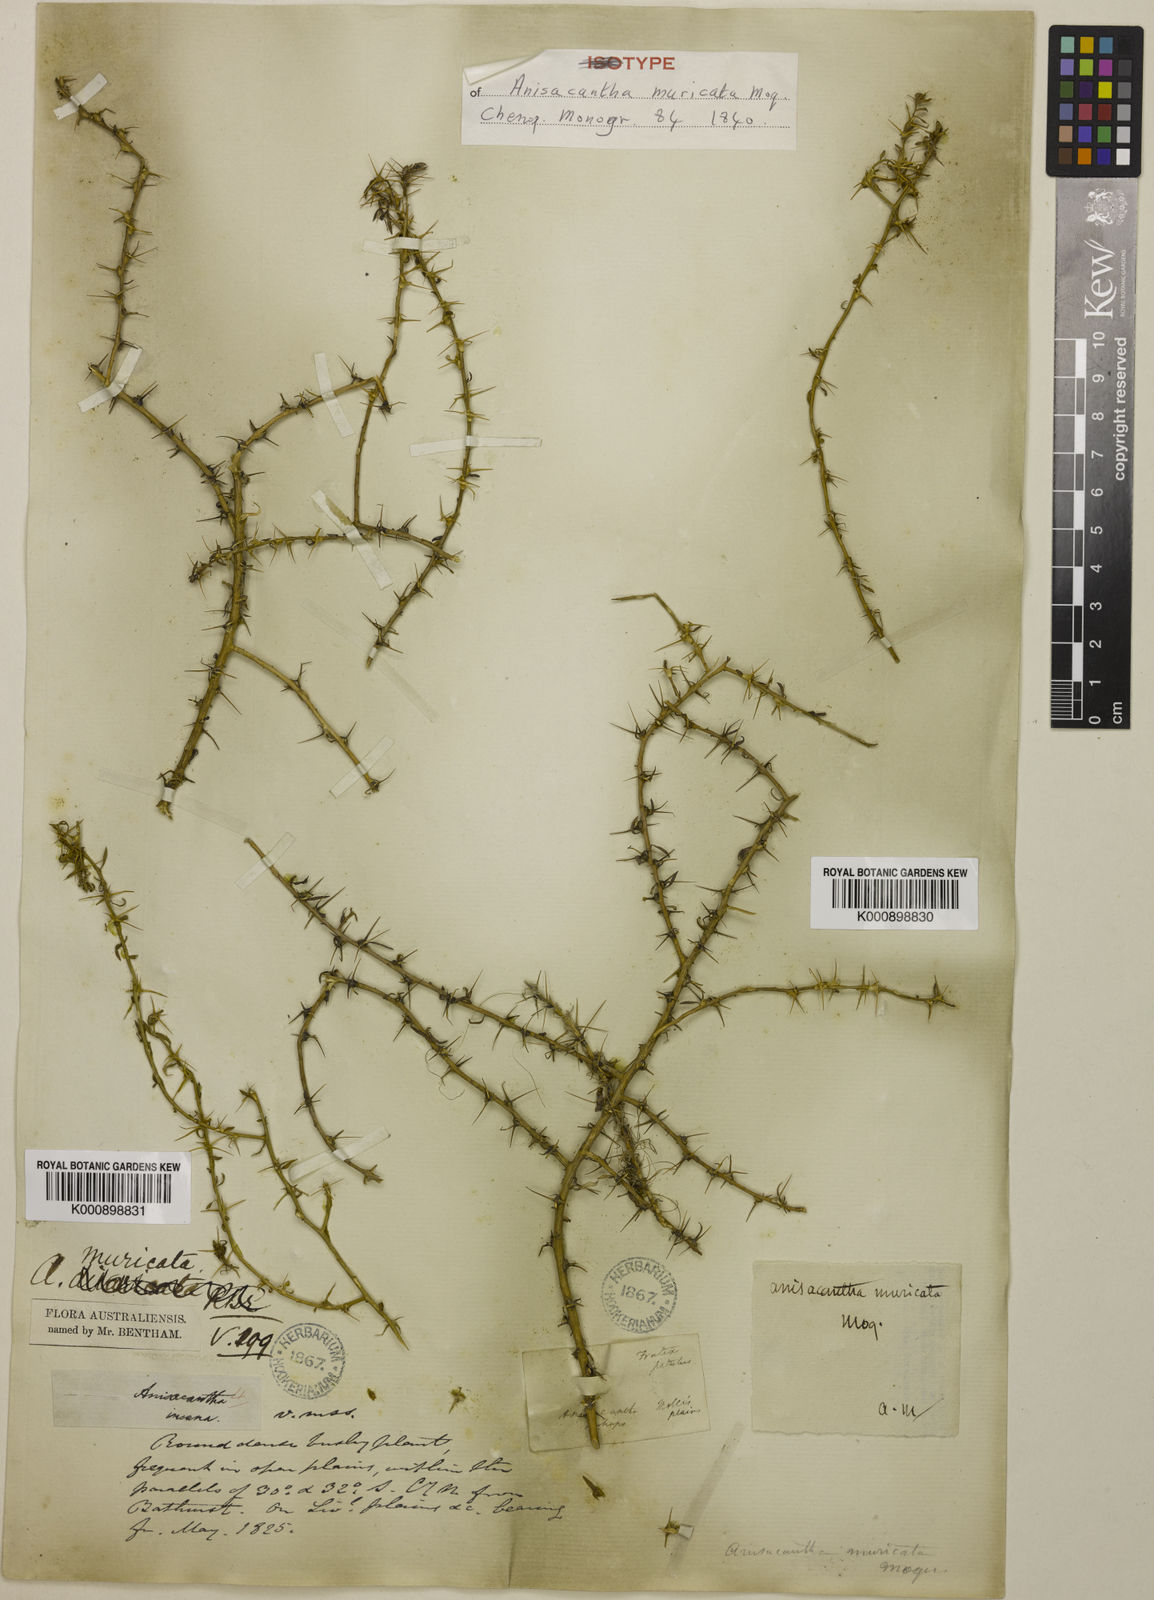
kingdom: Plantae
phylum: Tracheophyta
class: Magnoliopsida
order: Caryophyllales
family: Amaranthaceae
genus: Sclerolaena
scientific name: Sclerolaena muricata
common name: Roly-poly
